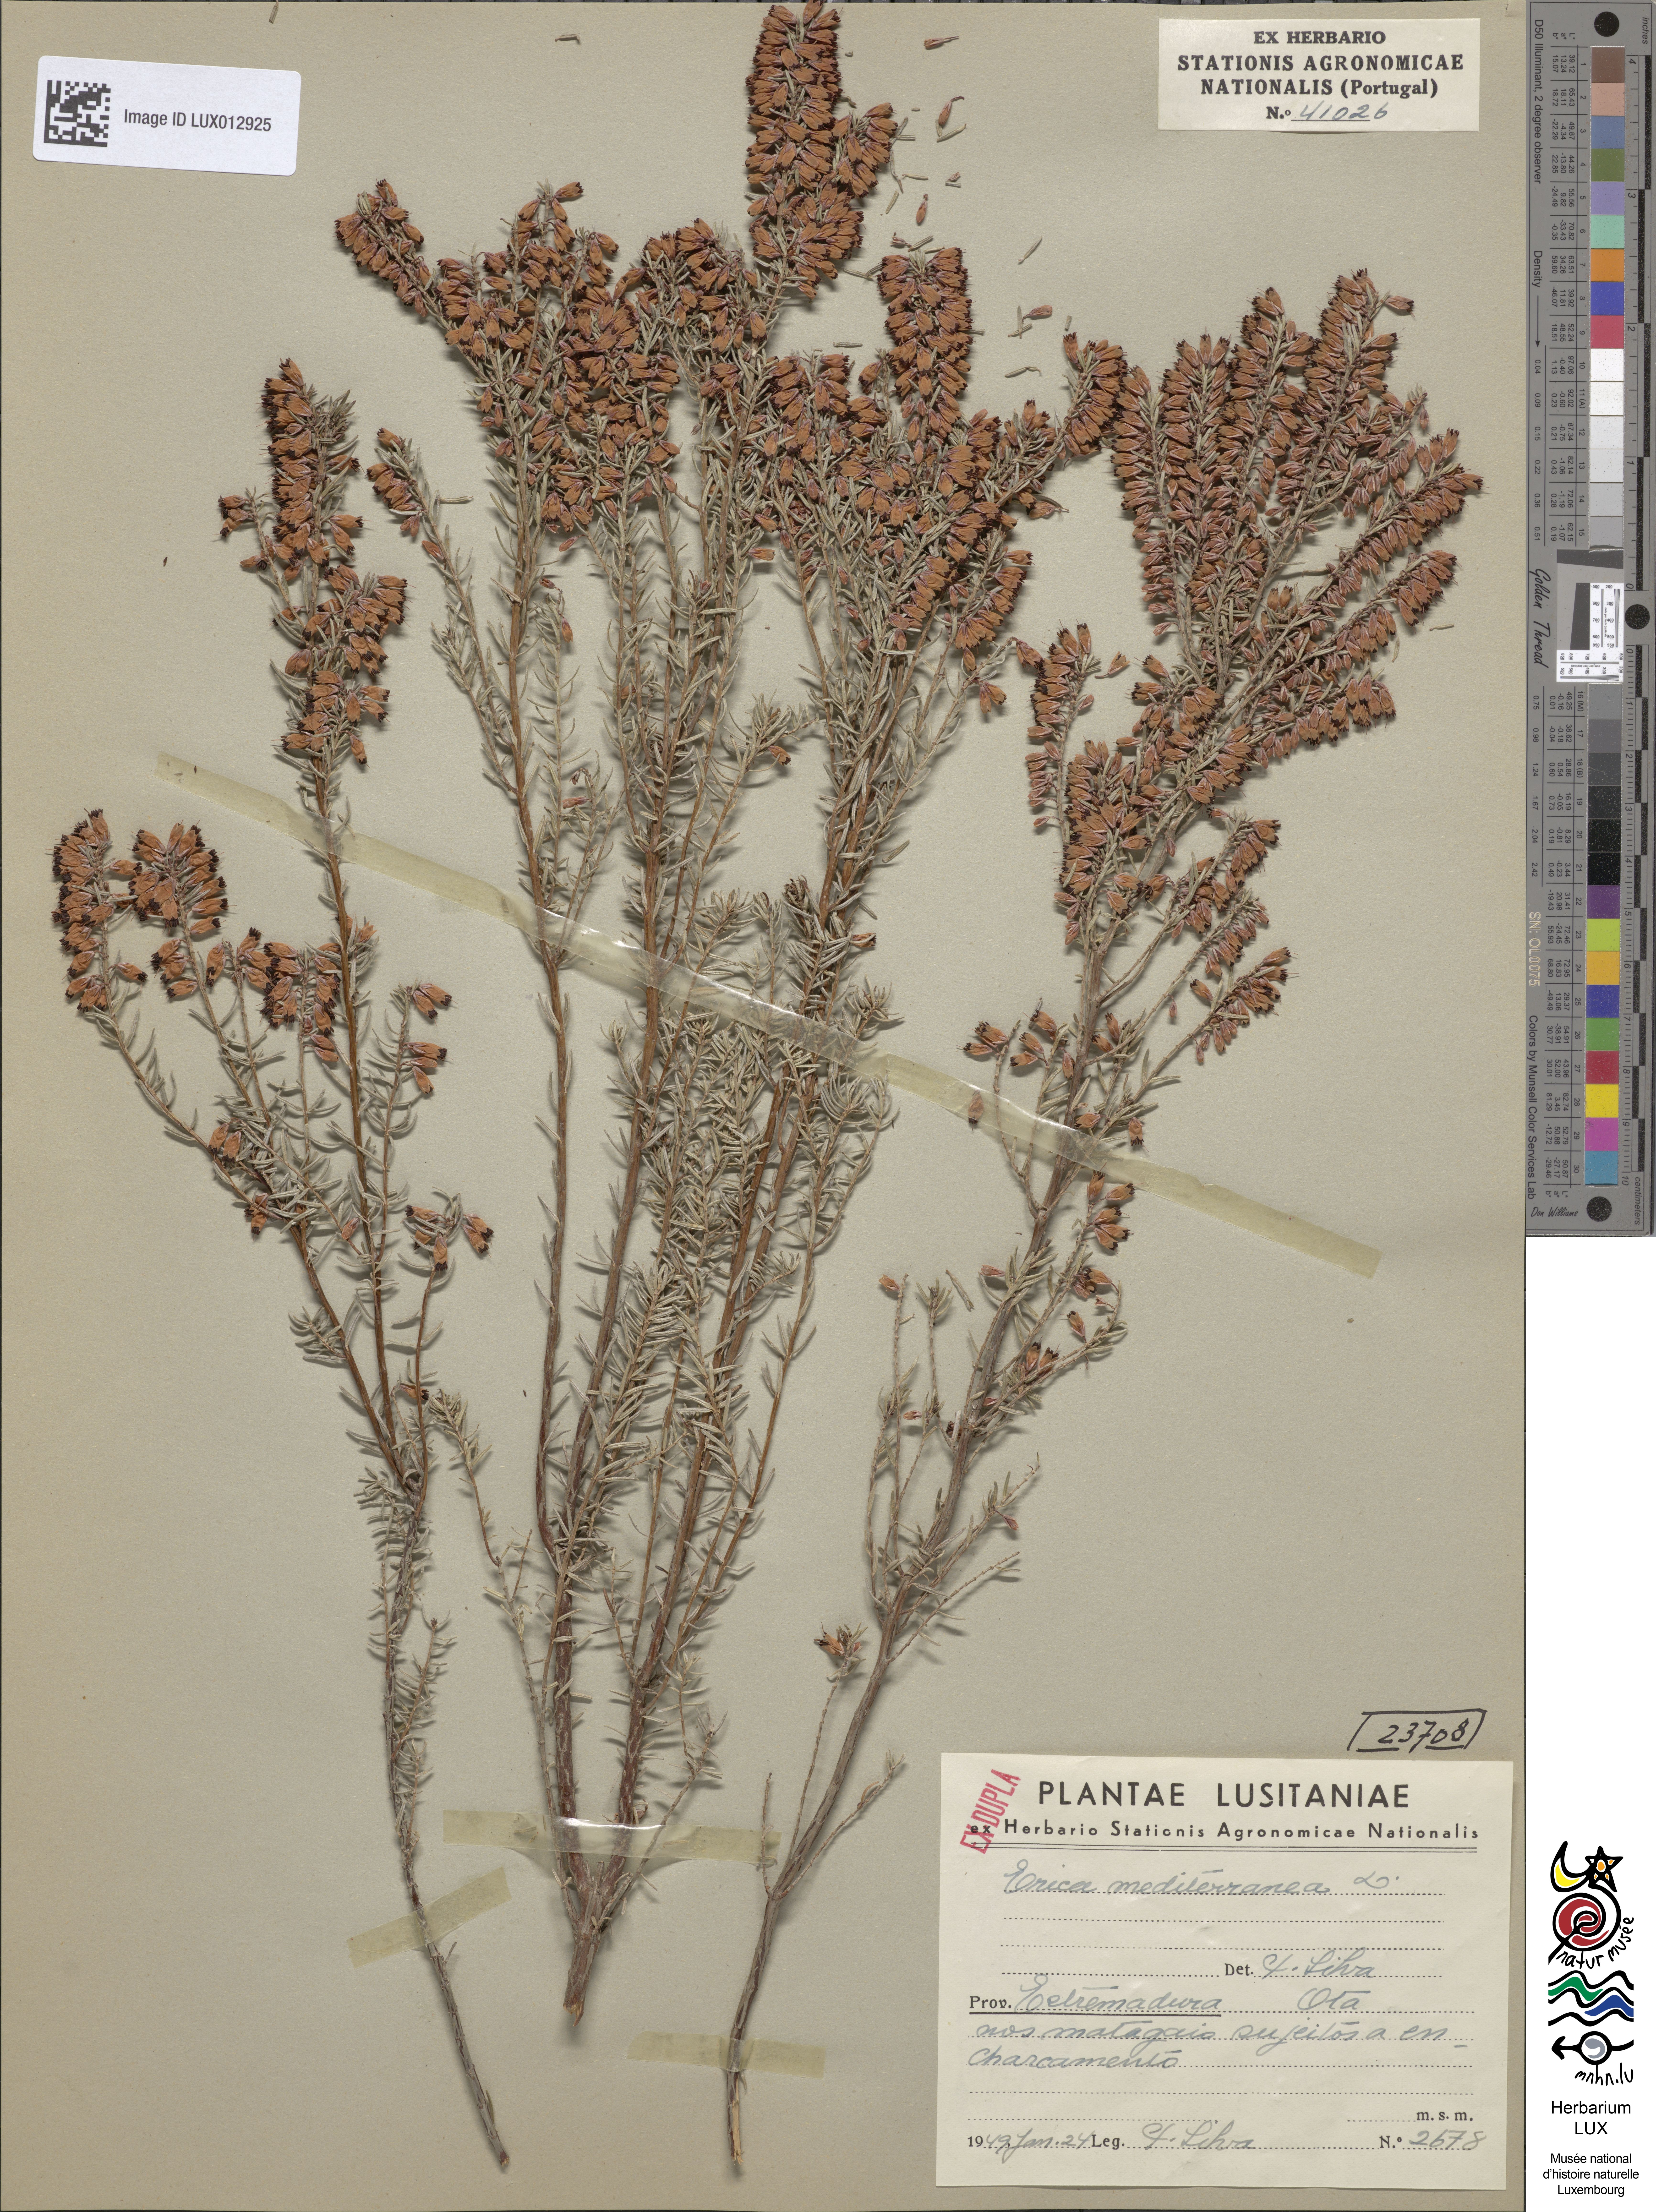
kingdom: Plantae
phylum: Tracheophyta
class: Magnoliopsida
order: Ericales
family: Ericaceae
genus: Erica
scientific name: Erica carnea
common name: Winter heath
